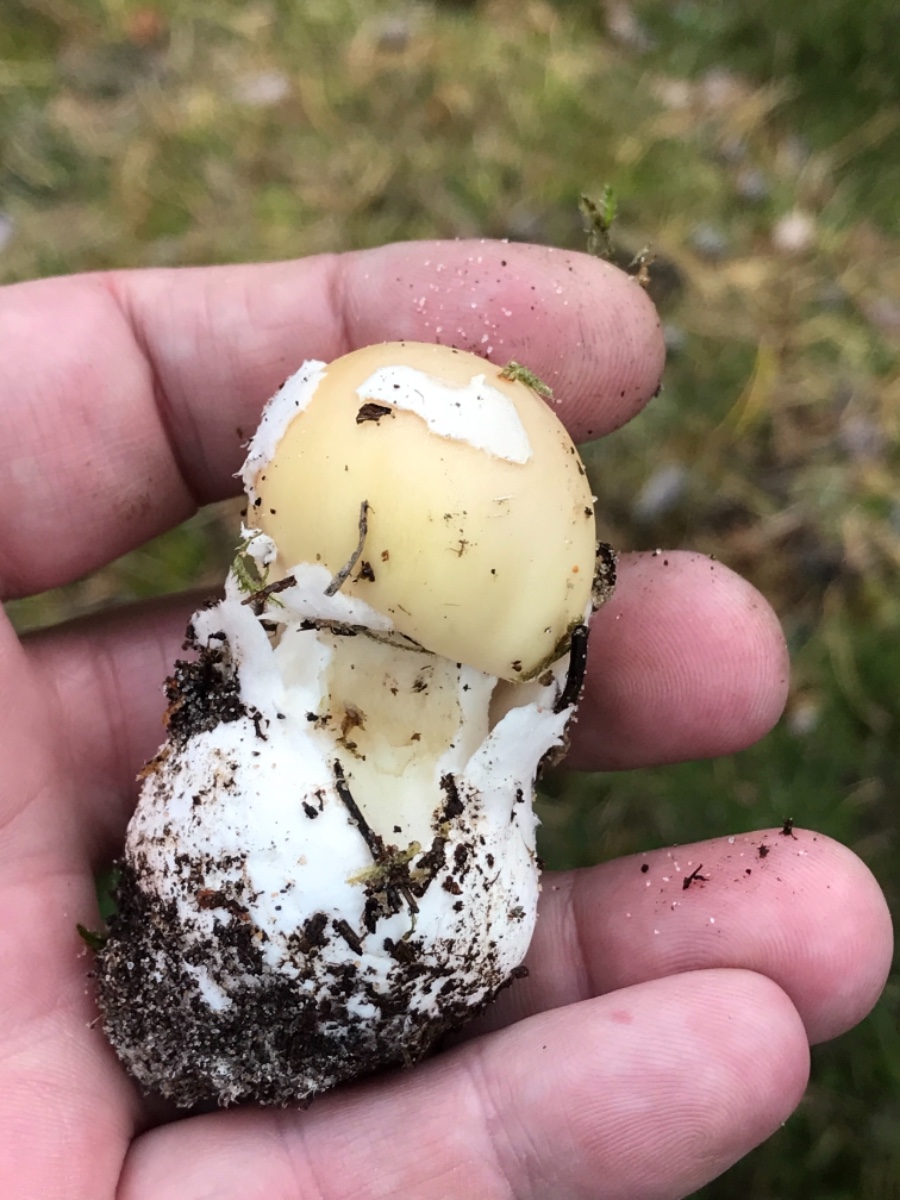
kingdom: Fungi
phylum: Basidiomycota
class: Agaricomycetes
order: Agaricales
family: Amanitaceae
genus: Amanita
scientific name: Amanita gemmata
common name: okkergul fluesvamp
